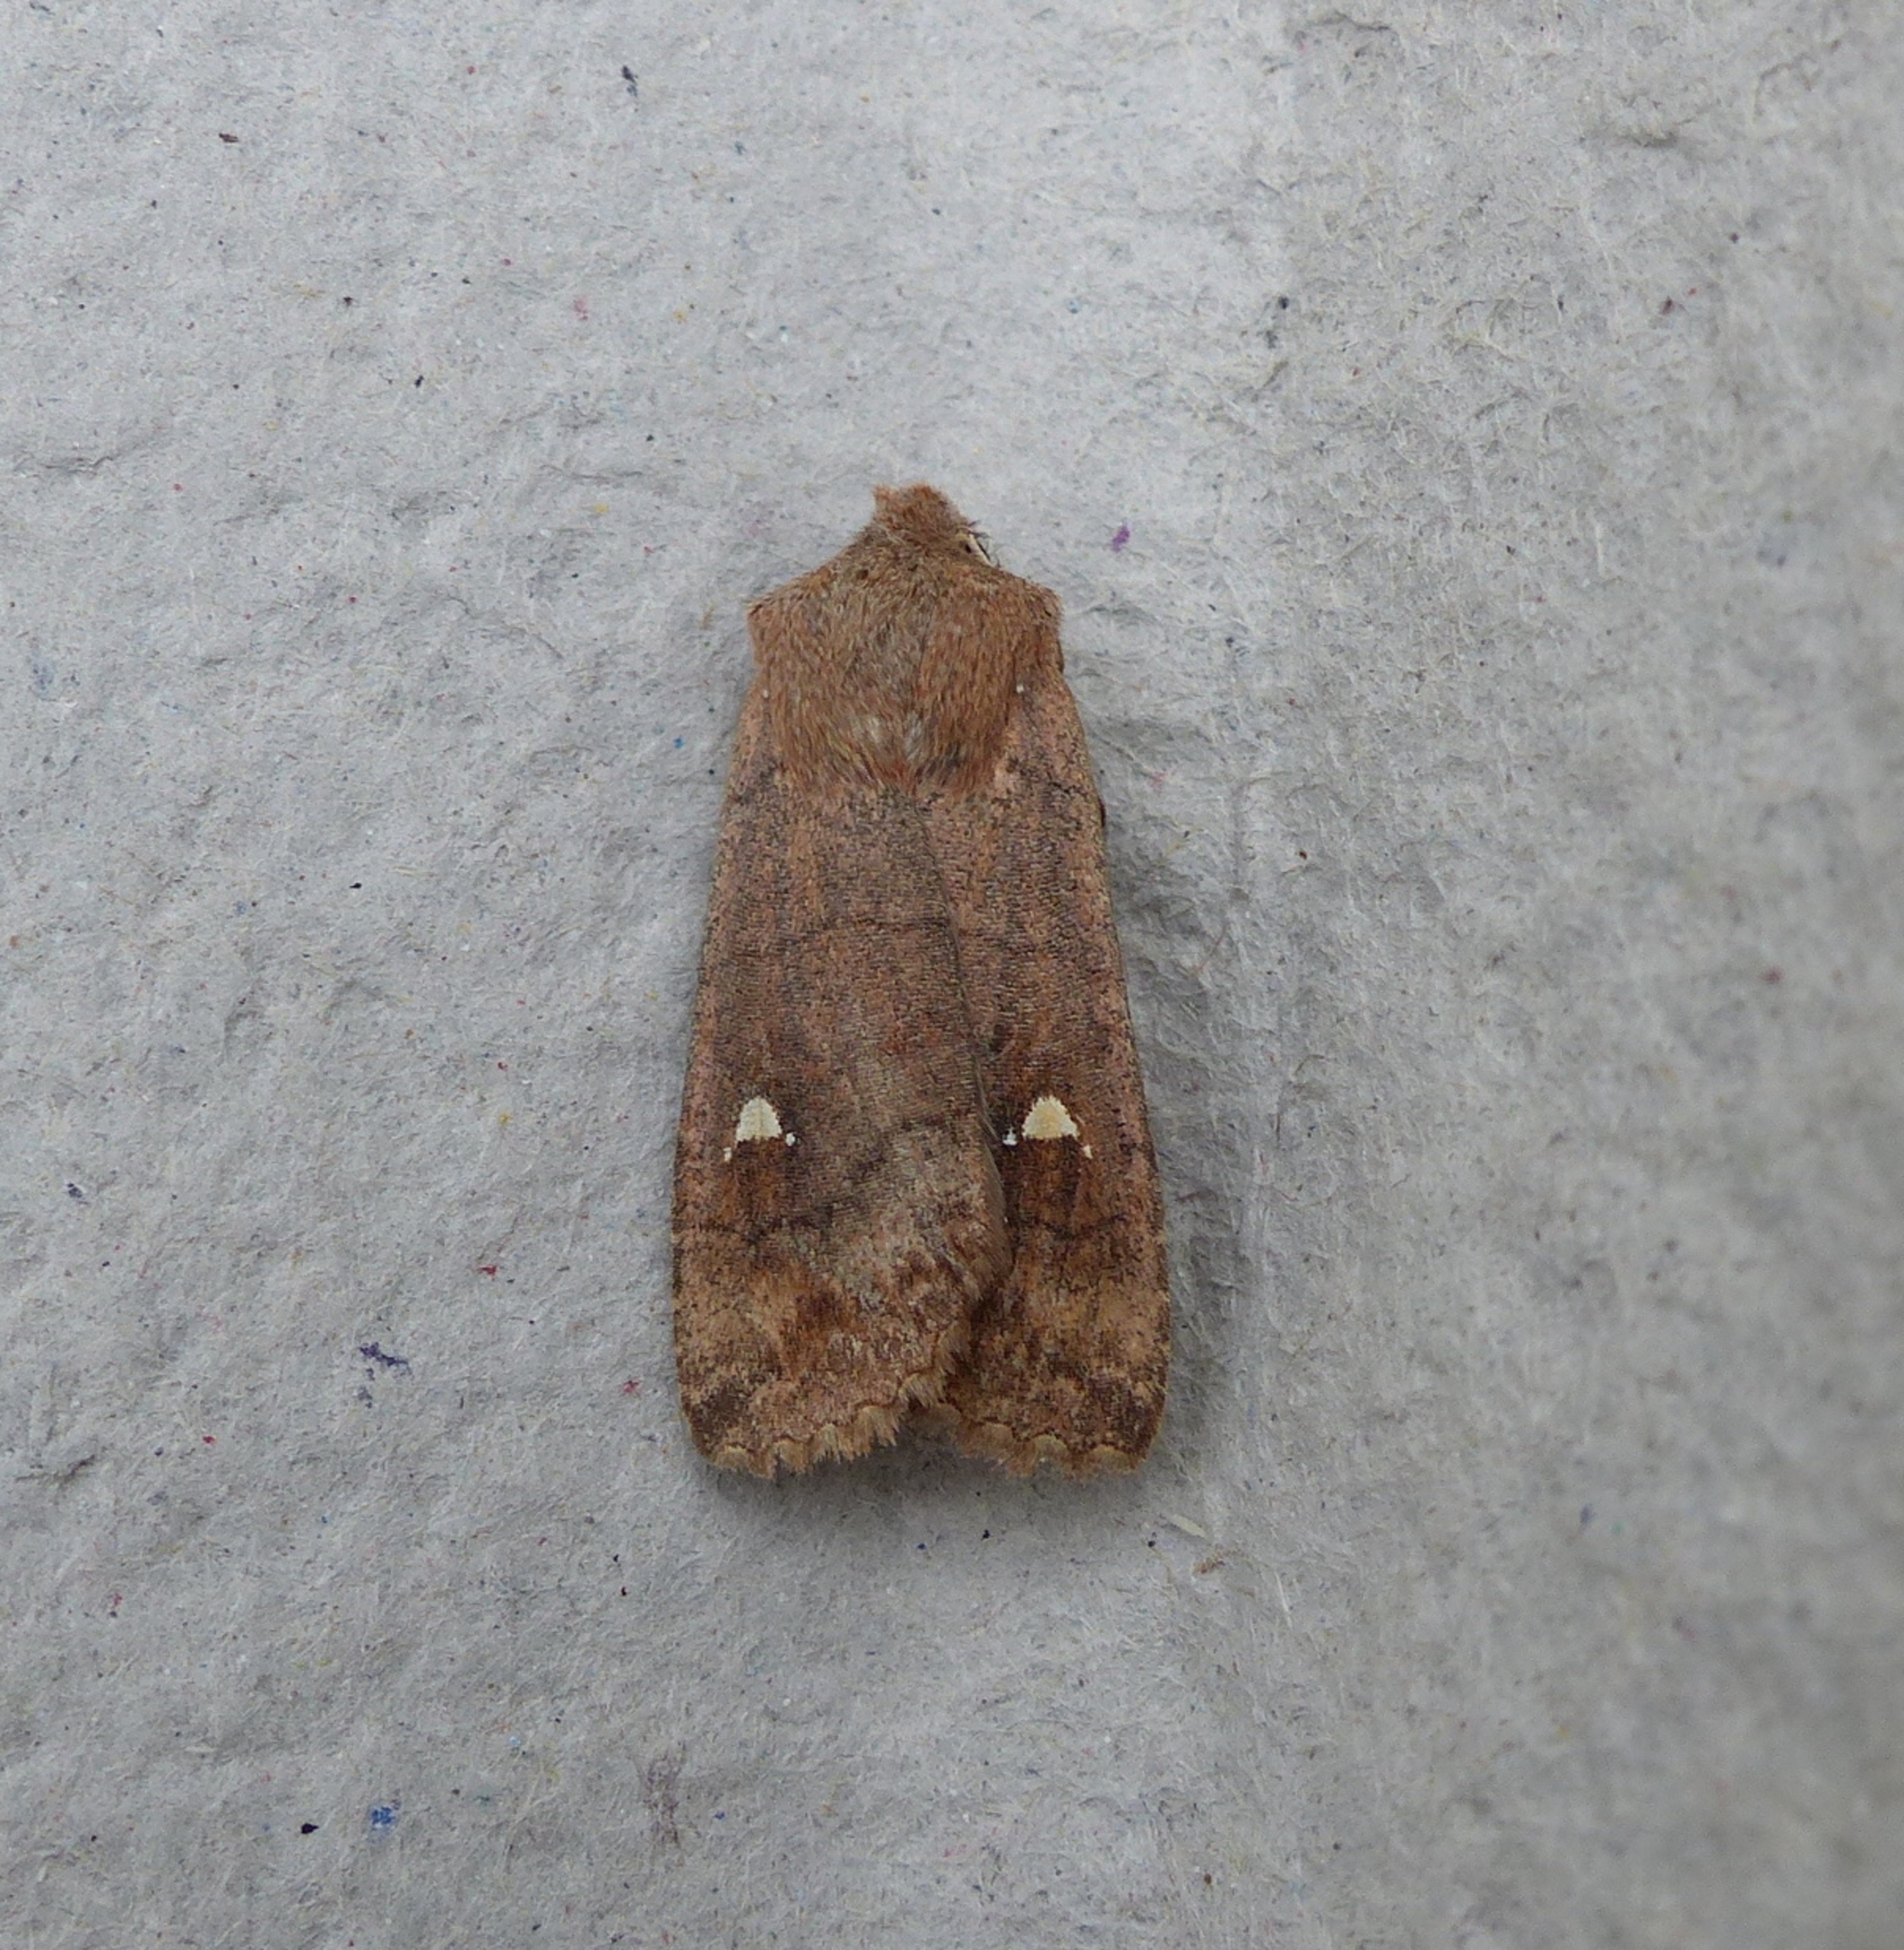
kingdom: Animalia
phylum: Arthropoda
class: Insecta
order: Lepidoptera
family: Noctuidae
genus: Eupsilia
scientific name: Eupsilia transversa
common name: Satellitugle
